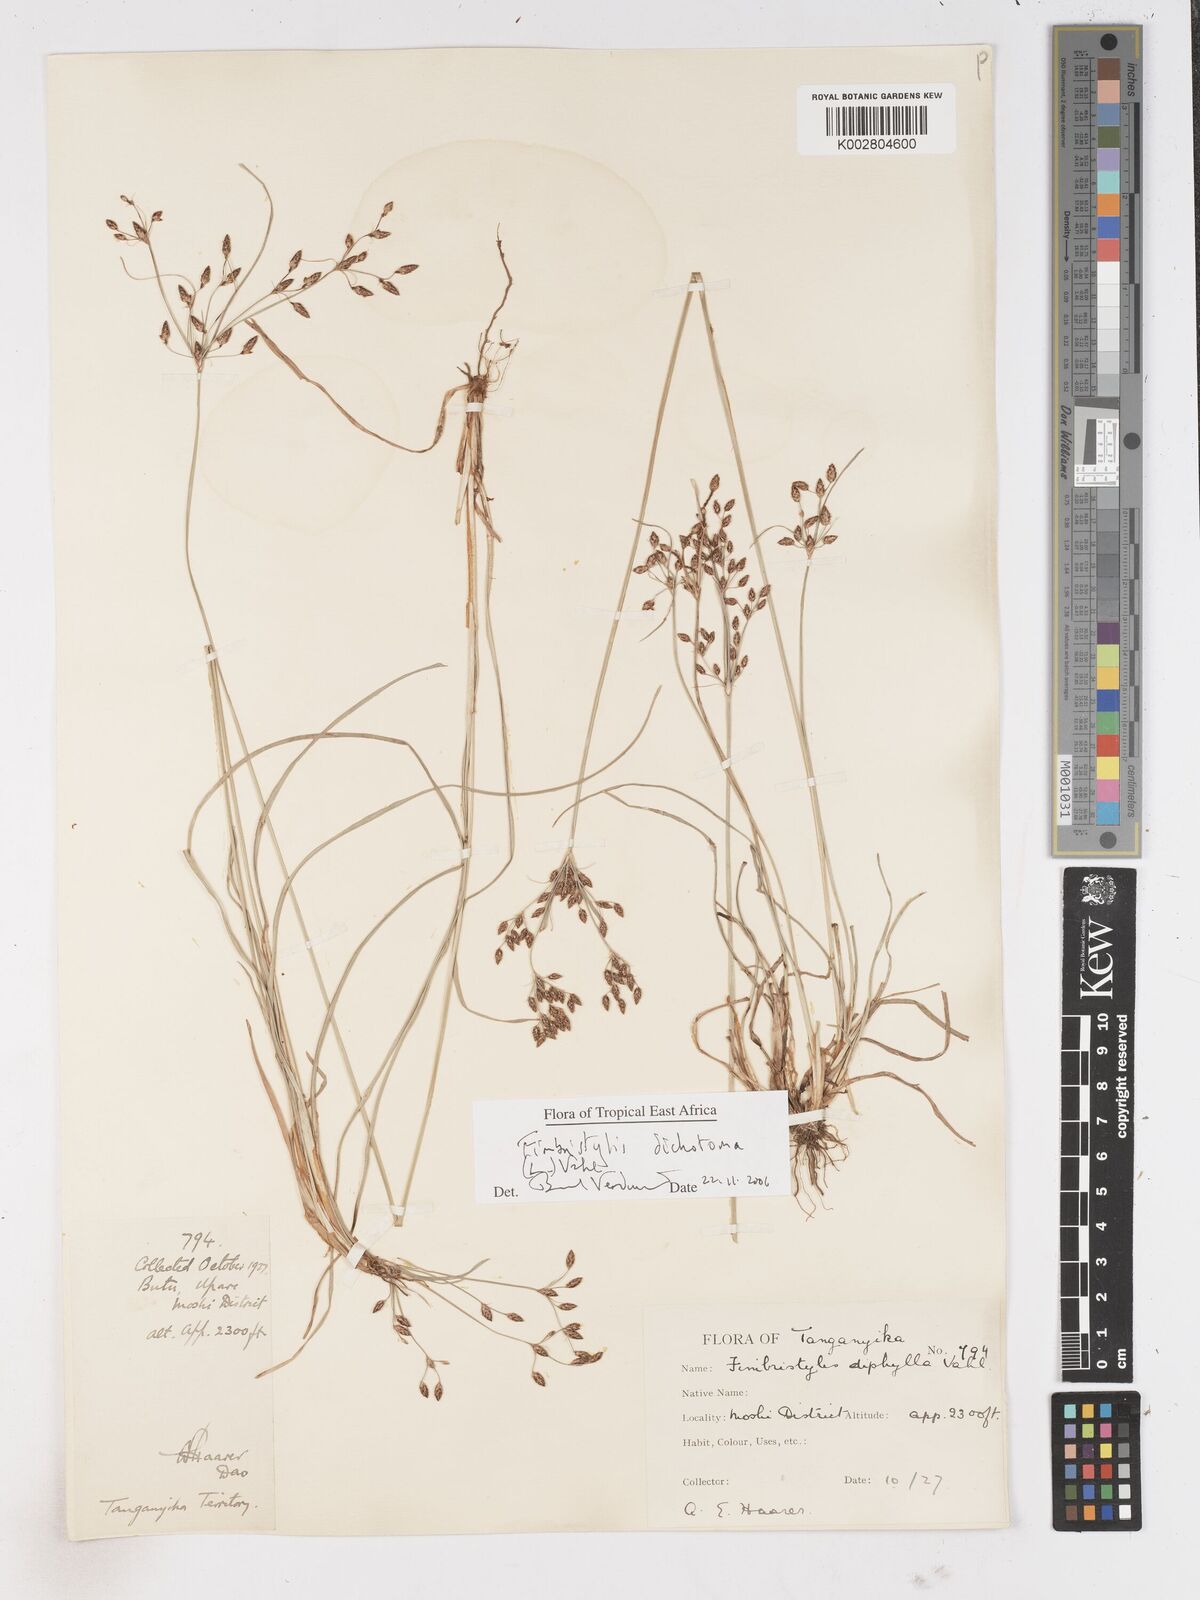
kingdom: Plantae
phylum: Tracheophyta
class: Liliopsida
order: Poales
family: Cyperaceae
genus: Fimbristylis
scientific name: Fimbristylis dichotoma
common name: Forked fimbry
